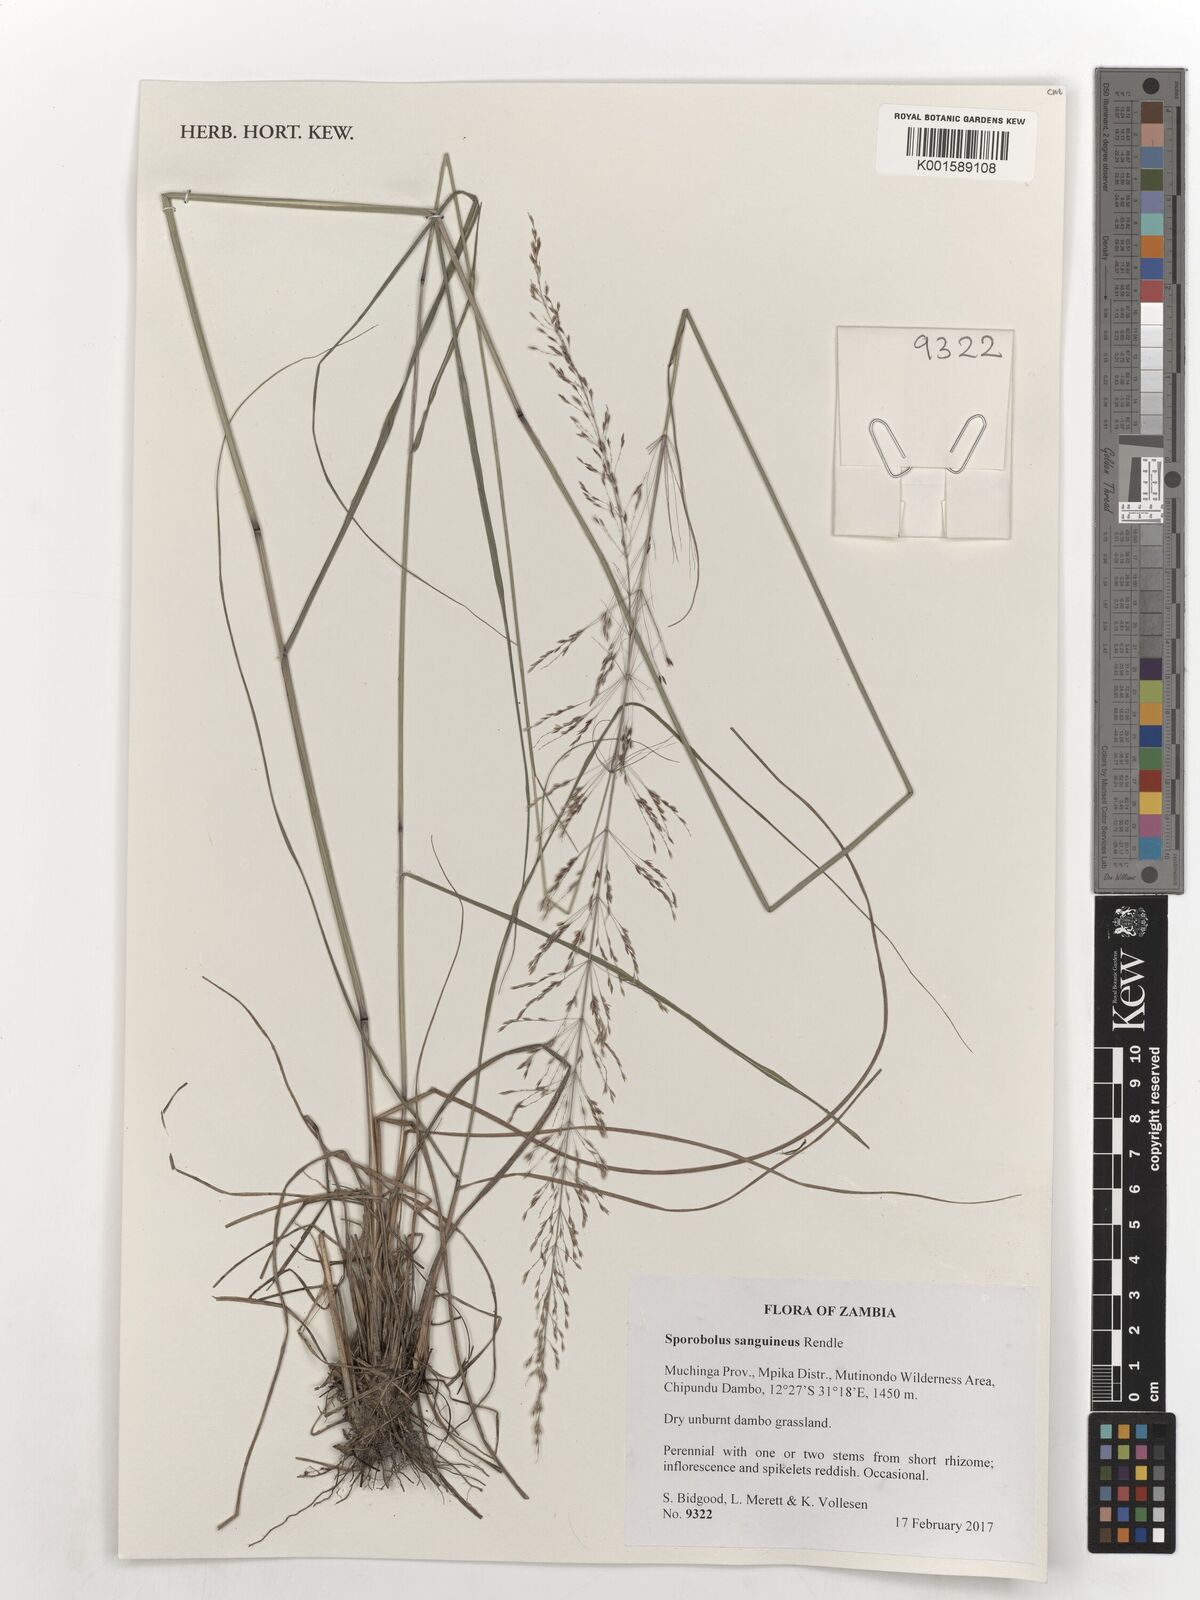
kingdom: Plantae
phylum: Tracheophyta
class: Liliopsida
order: Poales
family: Poaceae
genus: Sporobolus
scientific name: Sporobolus sanguineus
